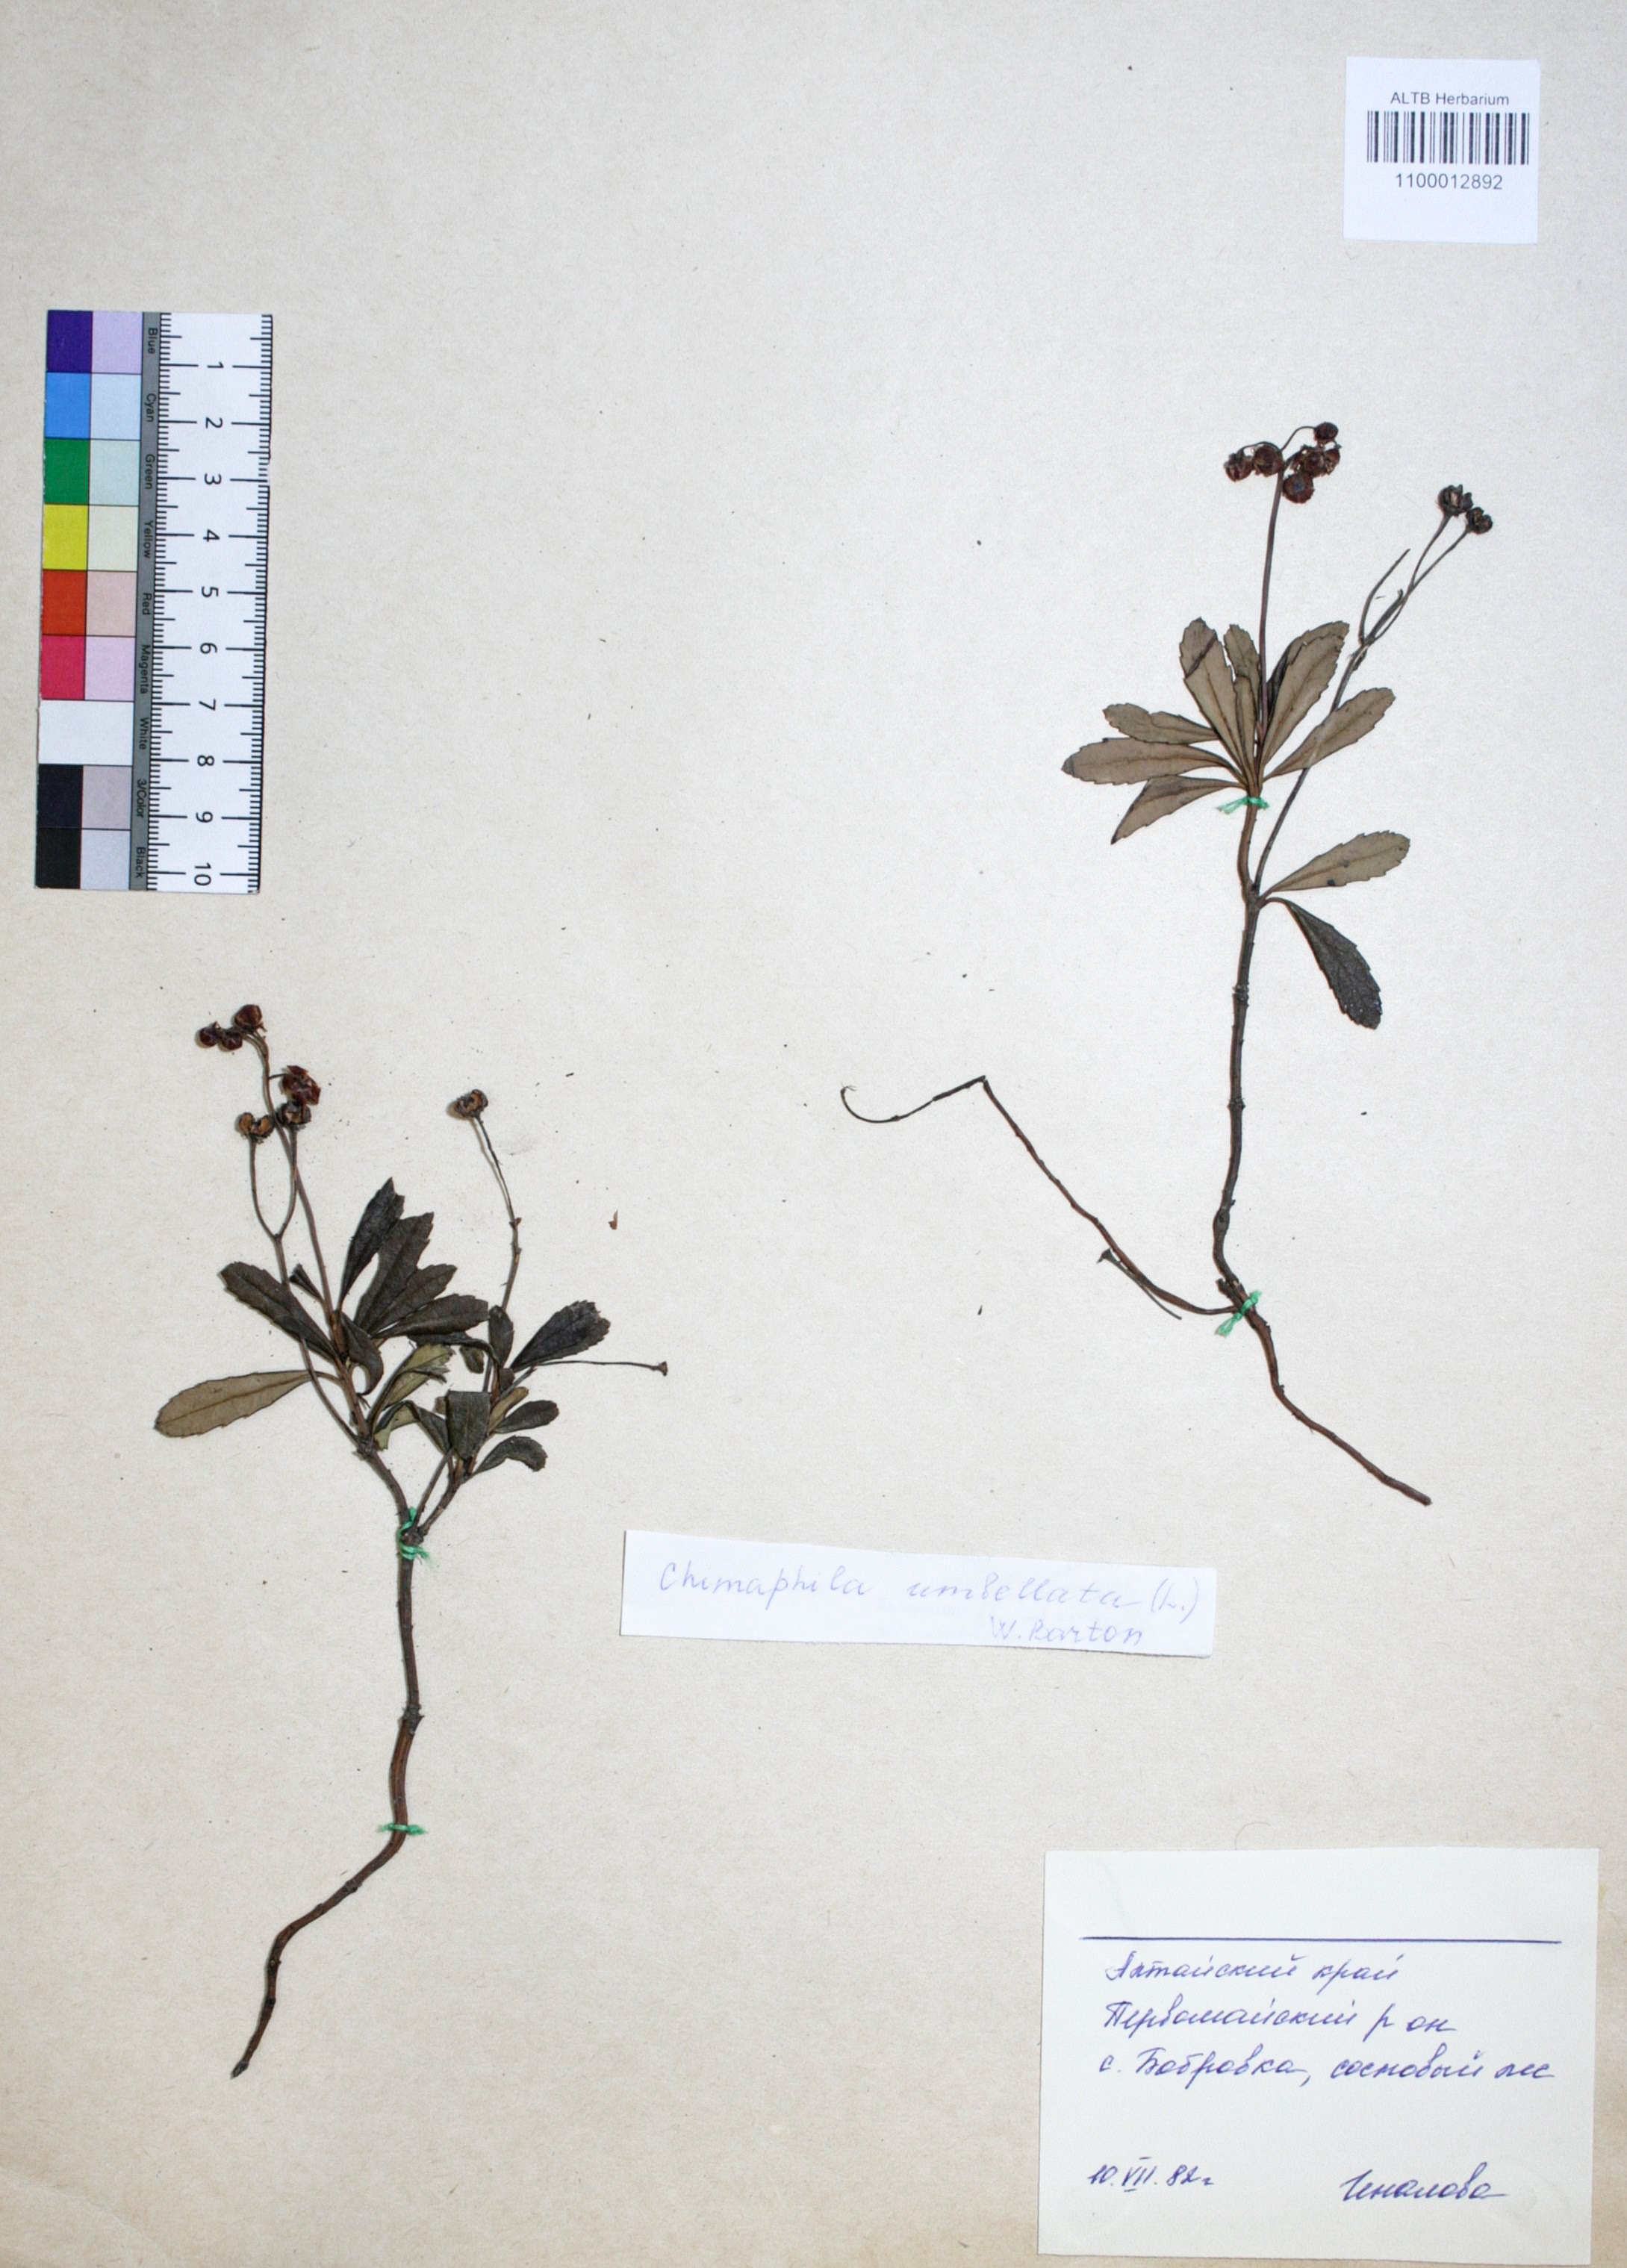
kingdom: Plantae
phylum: Tracheophyta
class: Magnoliopsida
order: Ericales
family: Ericaceae
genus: Chimaphila
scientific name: Chimaphila umbellata
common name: Pipsissewa
